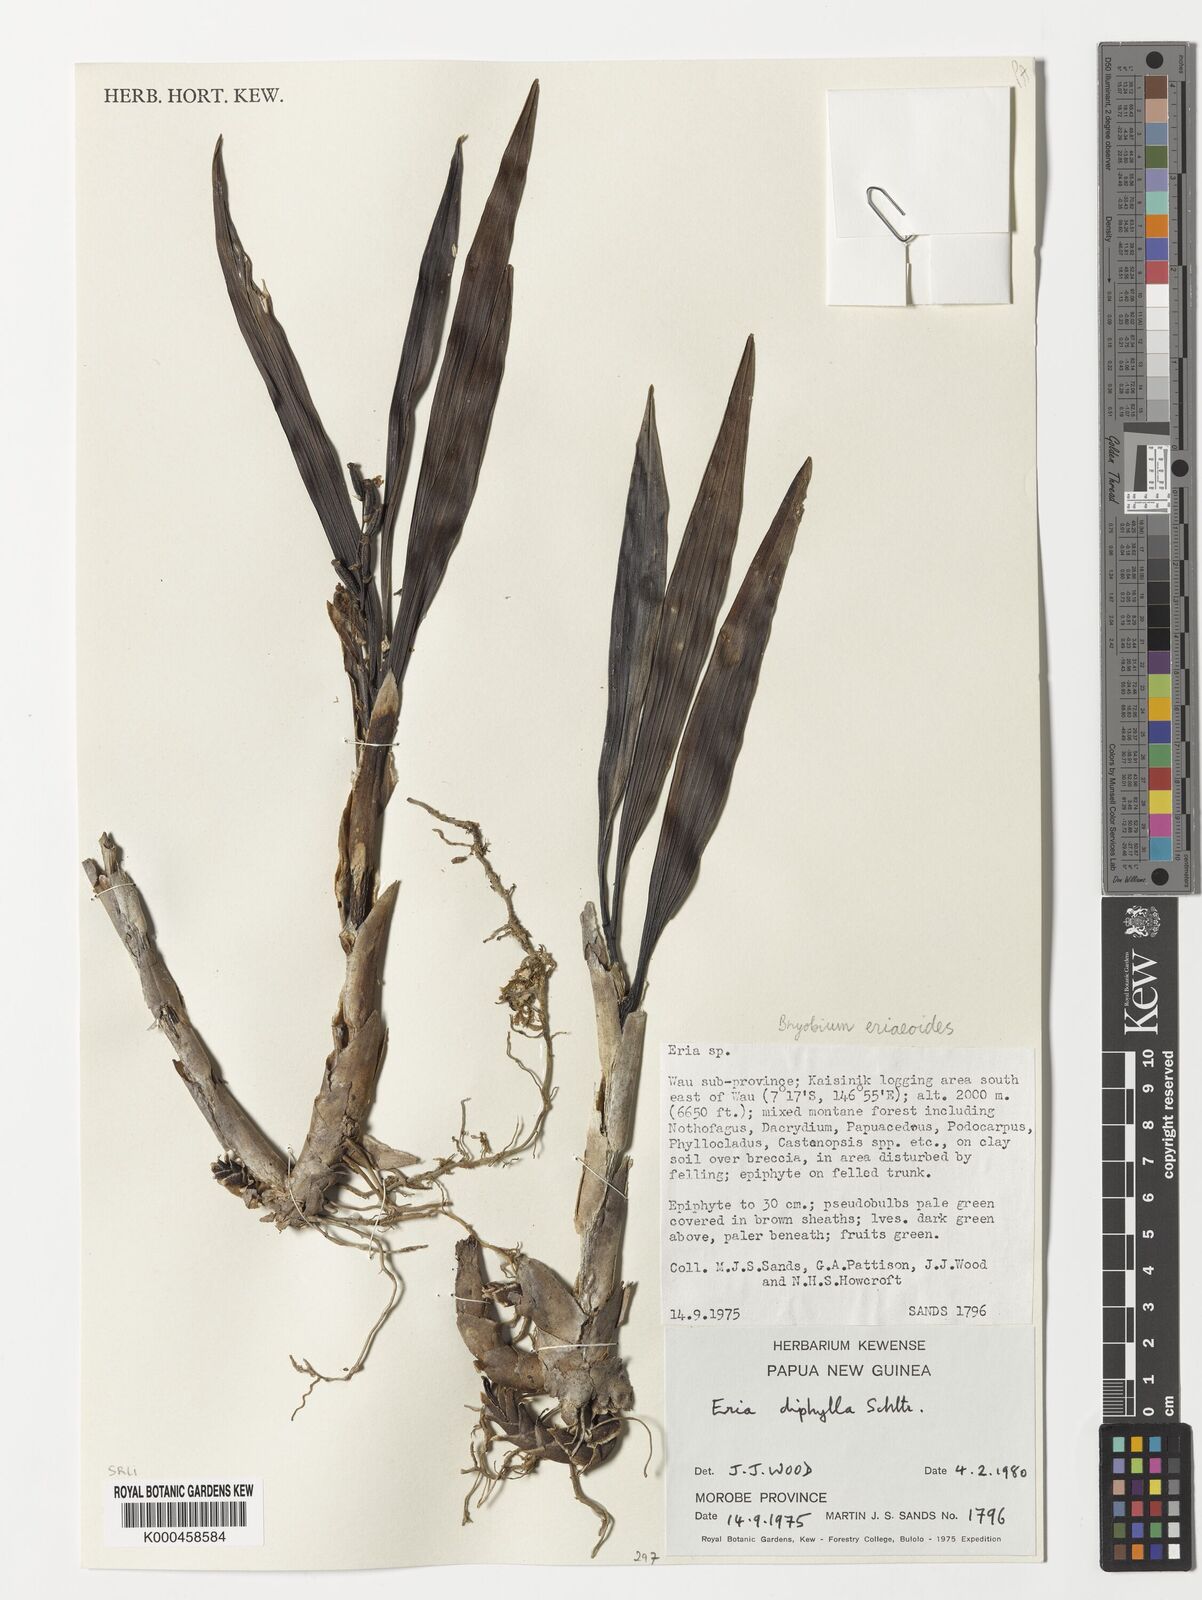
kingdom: Plantae
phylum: Tracheophyta
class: Liliopsida
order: Asparagales
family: Orchidaceae
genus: Bryobium
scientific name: Bryobium eriaeoides
